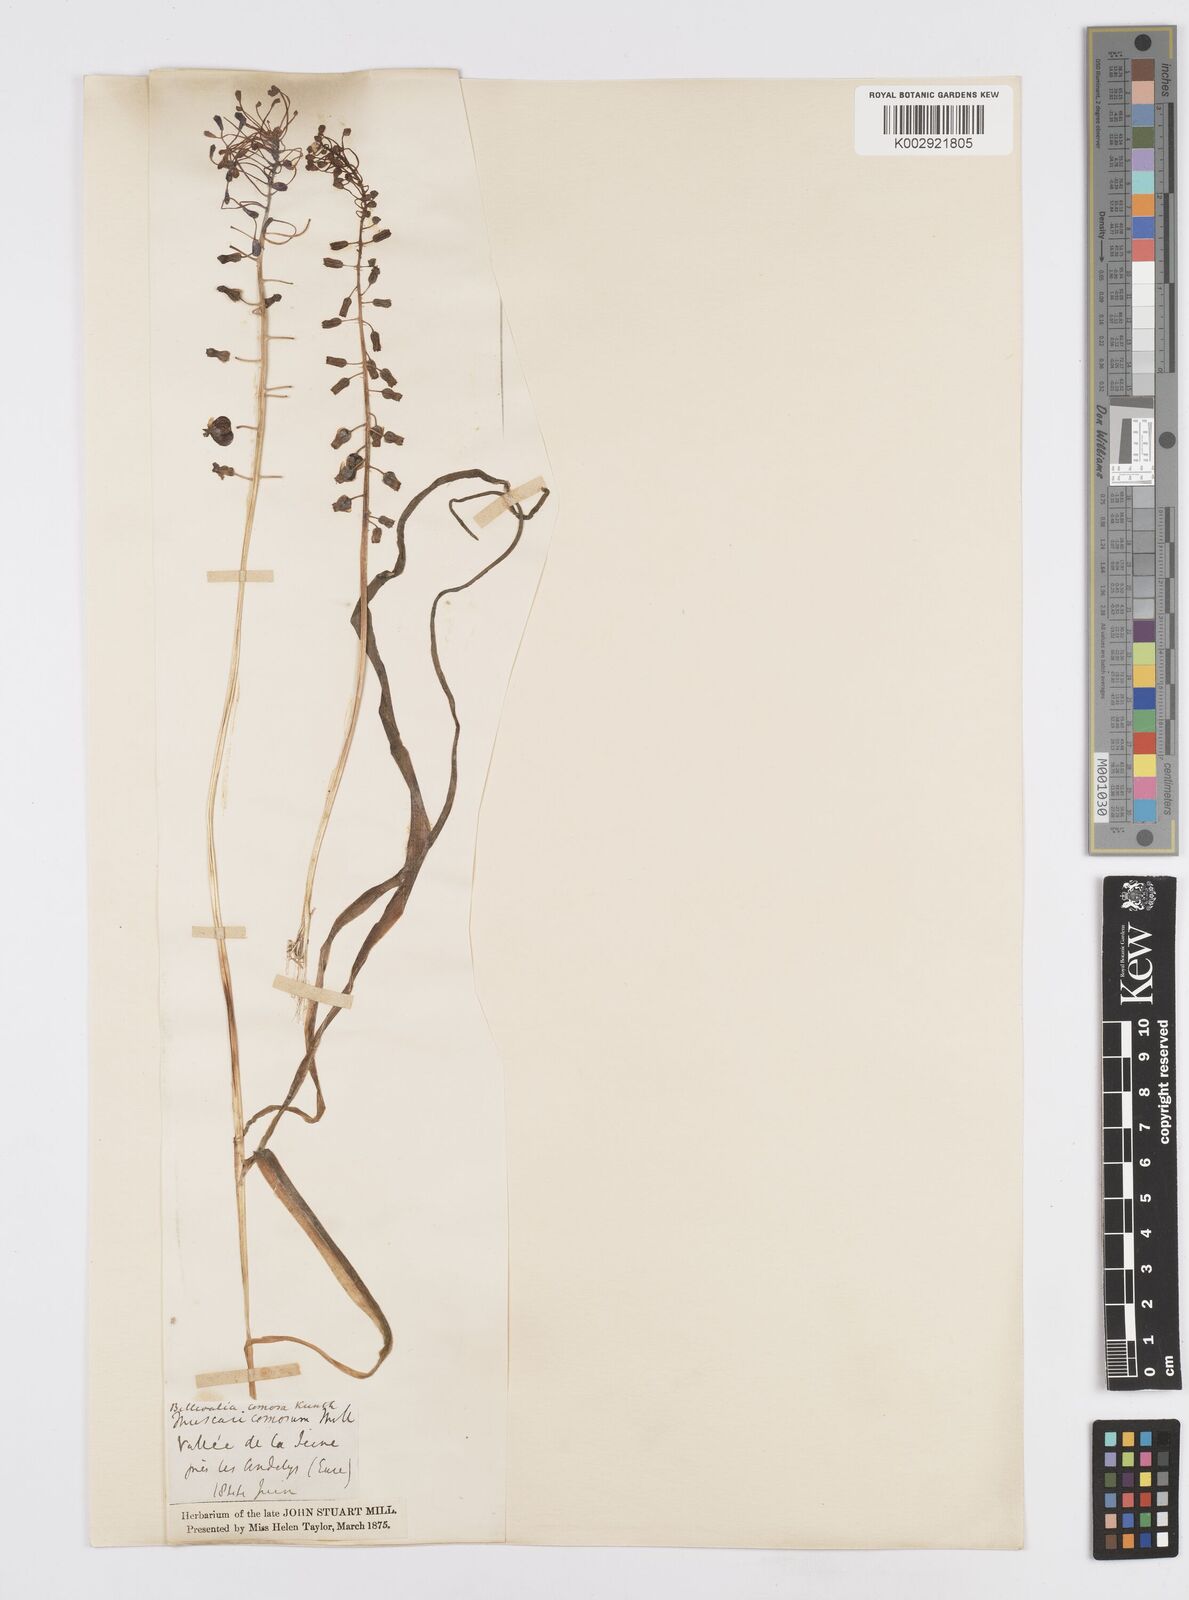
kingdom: Plantae
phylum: Tracheophyta
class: Liliopsida
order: Asparagales
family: Asparagaceae
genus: Muscari
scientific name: Muscari comosum
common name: Tassel hyacinth
